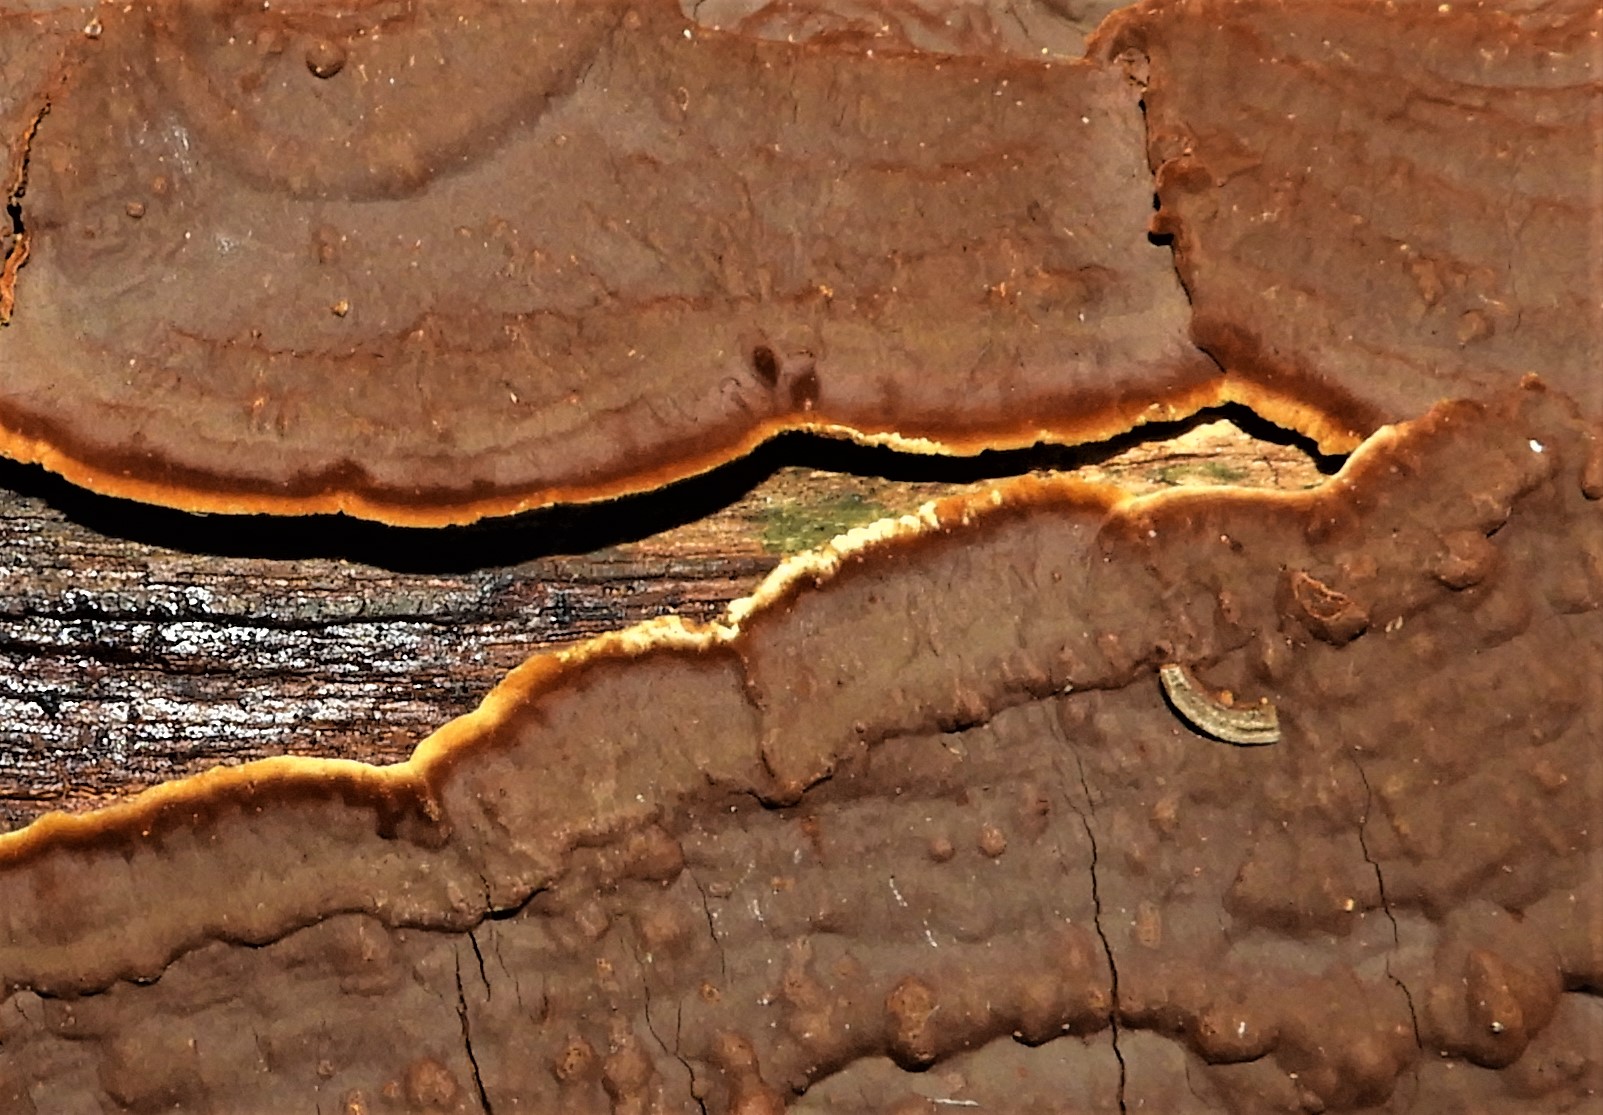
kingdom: Fungi
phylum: Basidiomycota
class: Agaricomycetes
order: Hymenochaetales
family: Hymenochaetaceae
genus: Hymenochaete
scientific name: Hymenochaete rubiginosa
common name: stiv ruslædersvamp
